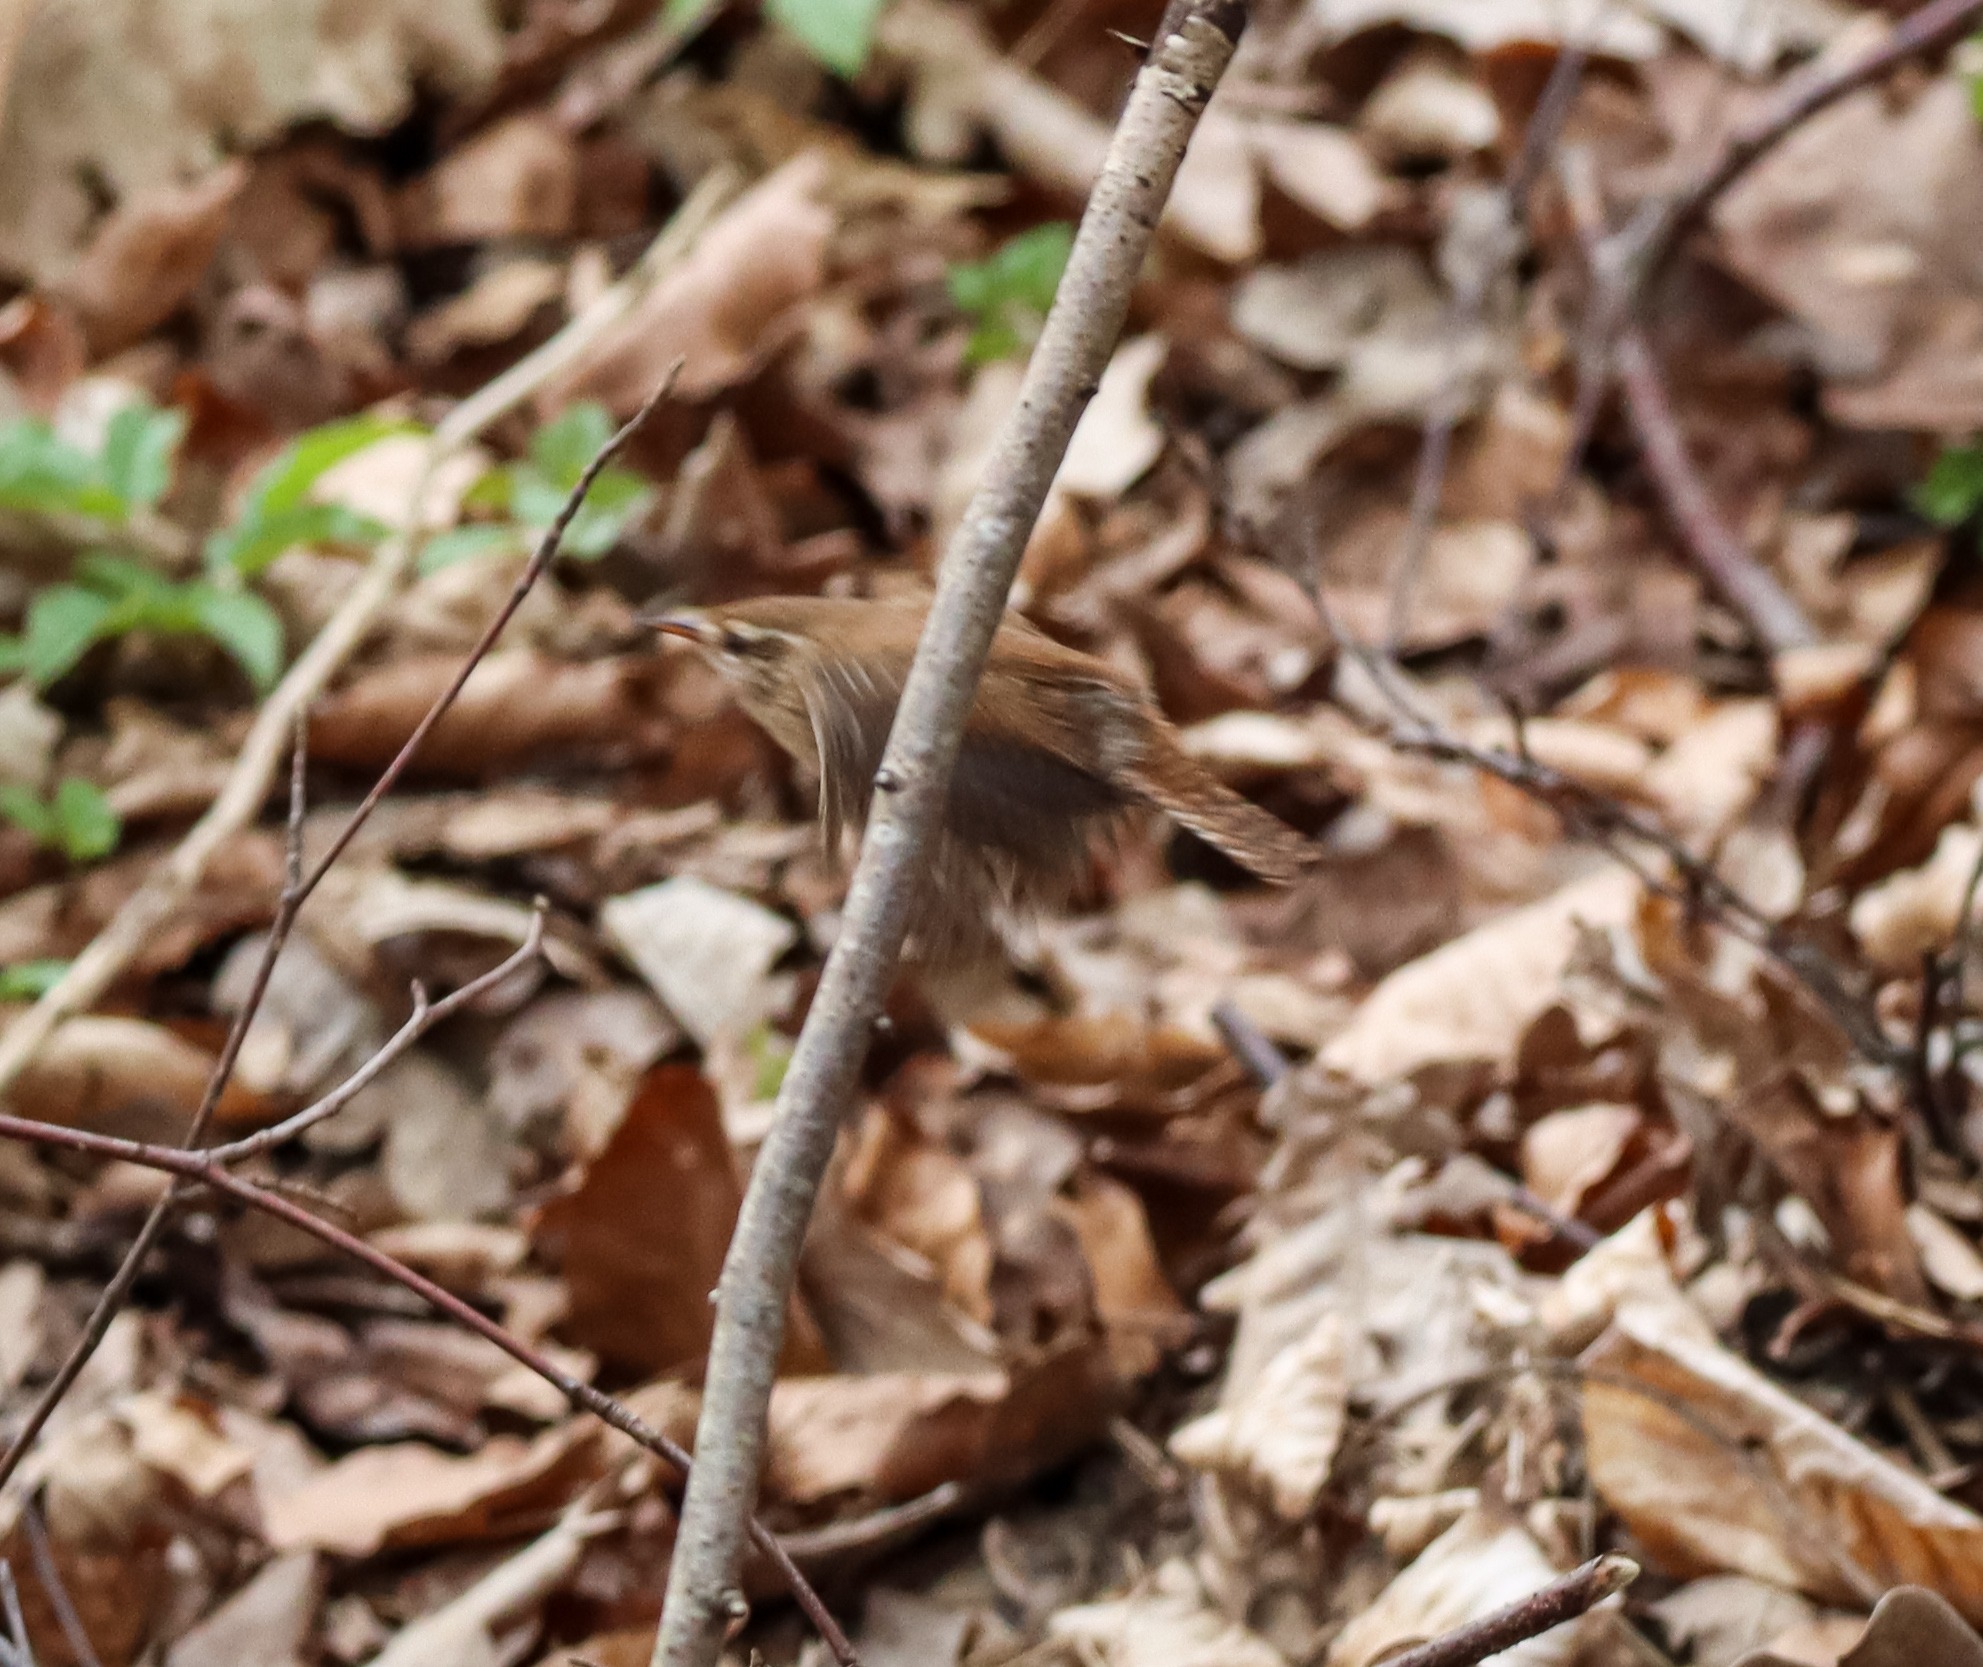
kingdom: Animalia
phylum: Chordata
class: Aves
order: Passeriformes
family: Troglodytidae
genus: Troglodytes
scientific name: Troglodytes troglodytes
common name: Gærdesmutte
